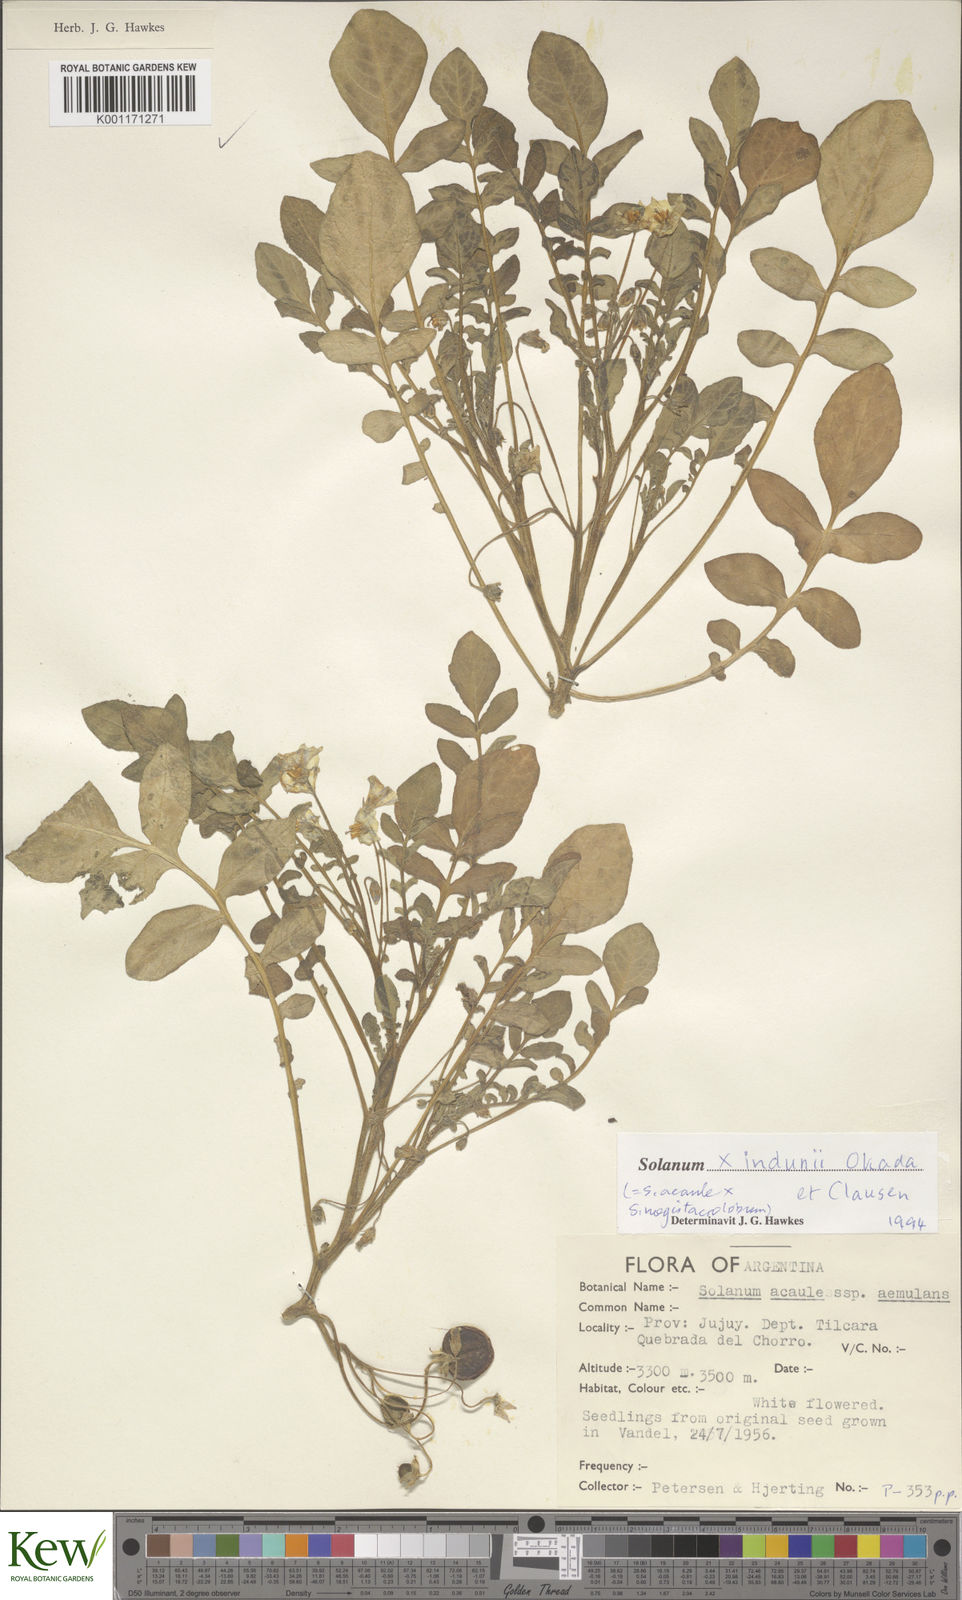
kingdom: Plantae
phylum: Tracheophyta
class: Magnoliopsida
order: Solanales
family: Solanaceae
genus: Solanum
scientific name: Solanum
